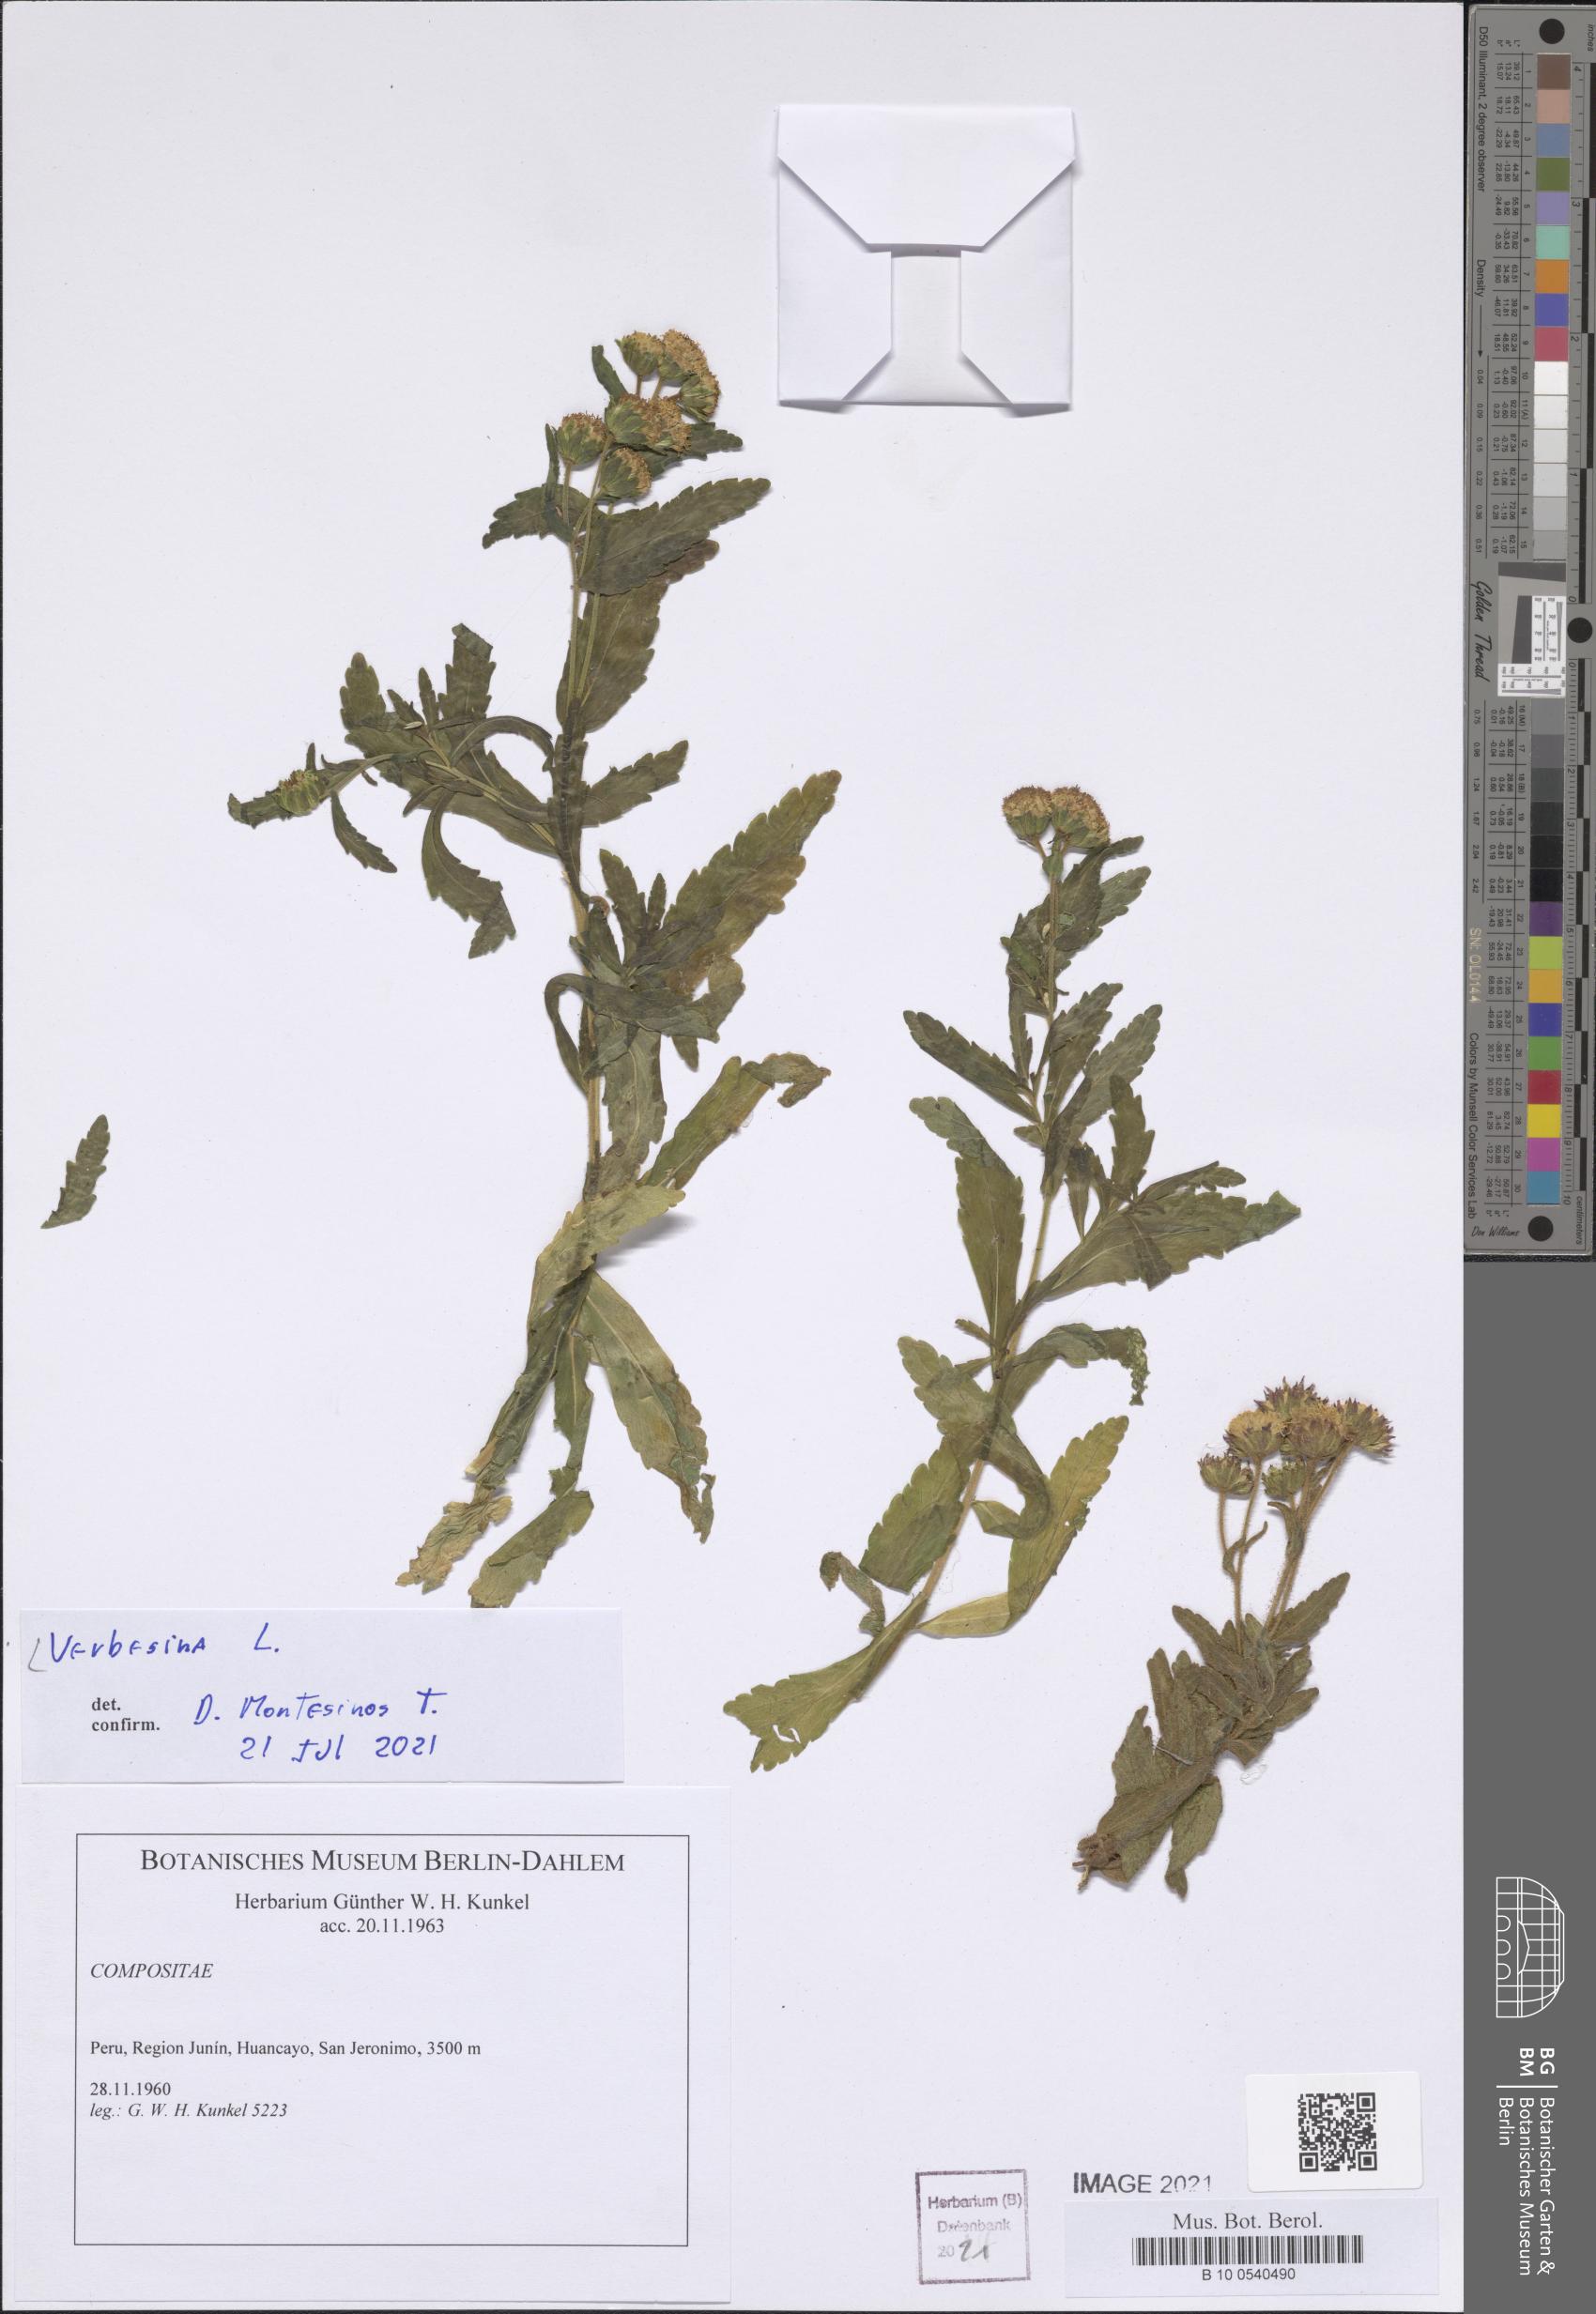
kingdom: Plantae
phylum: Tracheophyta
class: Magnoliopsida
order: Asterales
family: Asteraceae
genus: Verbesina
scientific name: Verbesina
